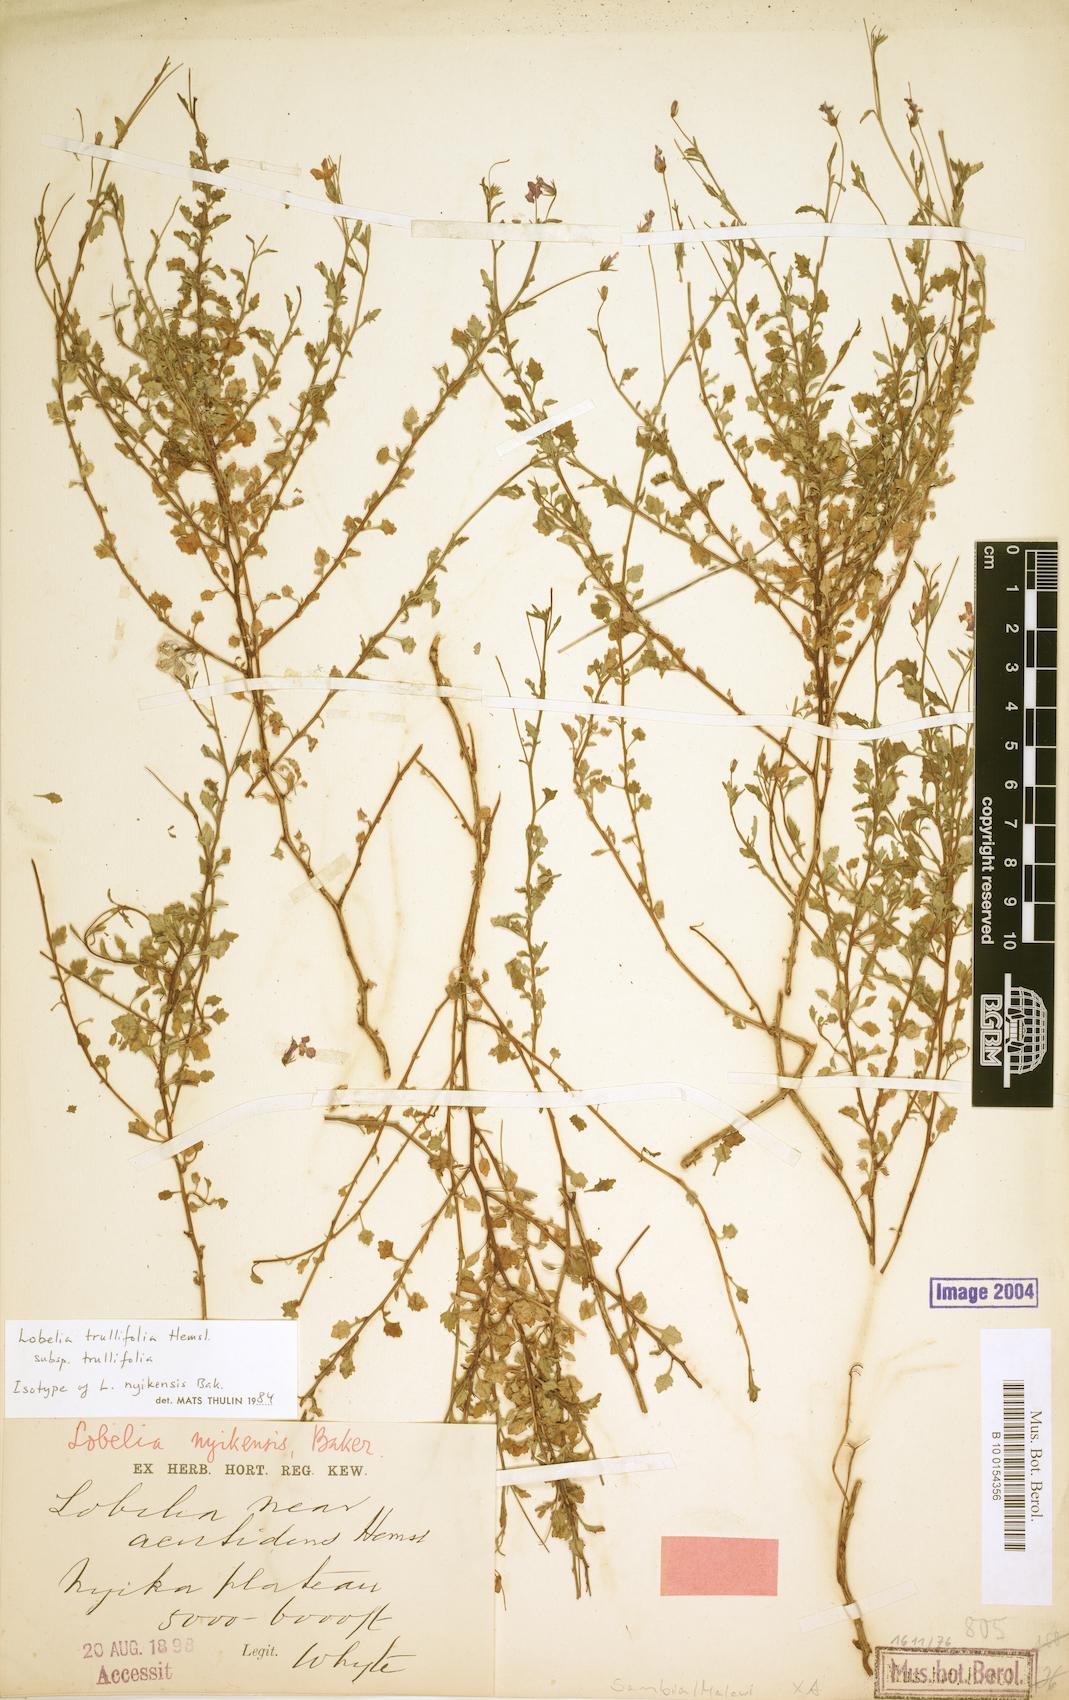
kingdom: Plantae
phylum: Tracheophyta
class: Magnoliopsida
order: Asterales
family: Campanulaceae
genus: Lobelia
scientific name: Lobelia trullifolia
